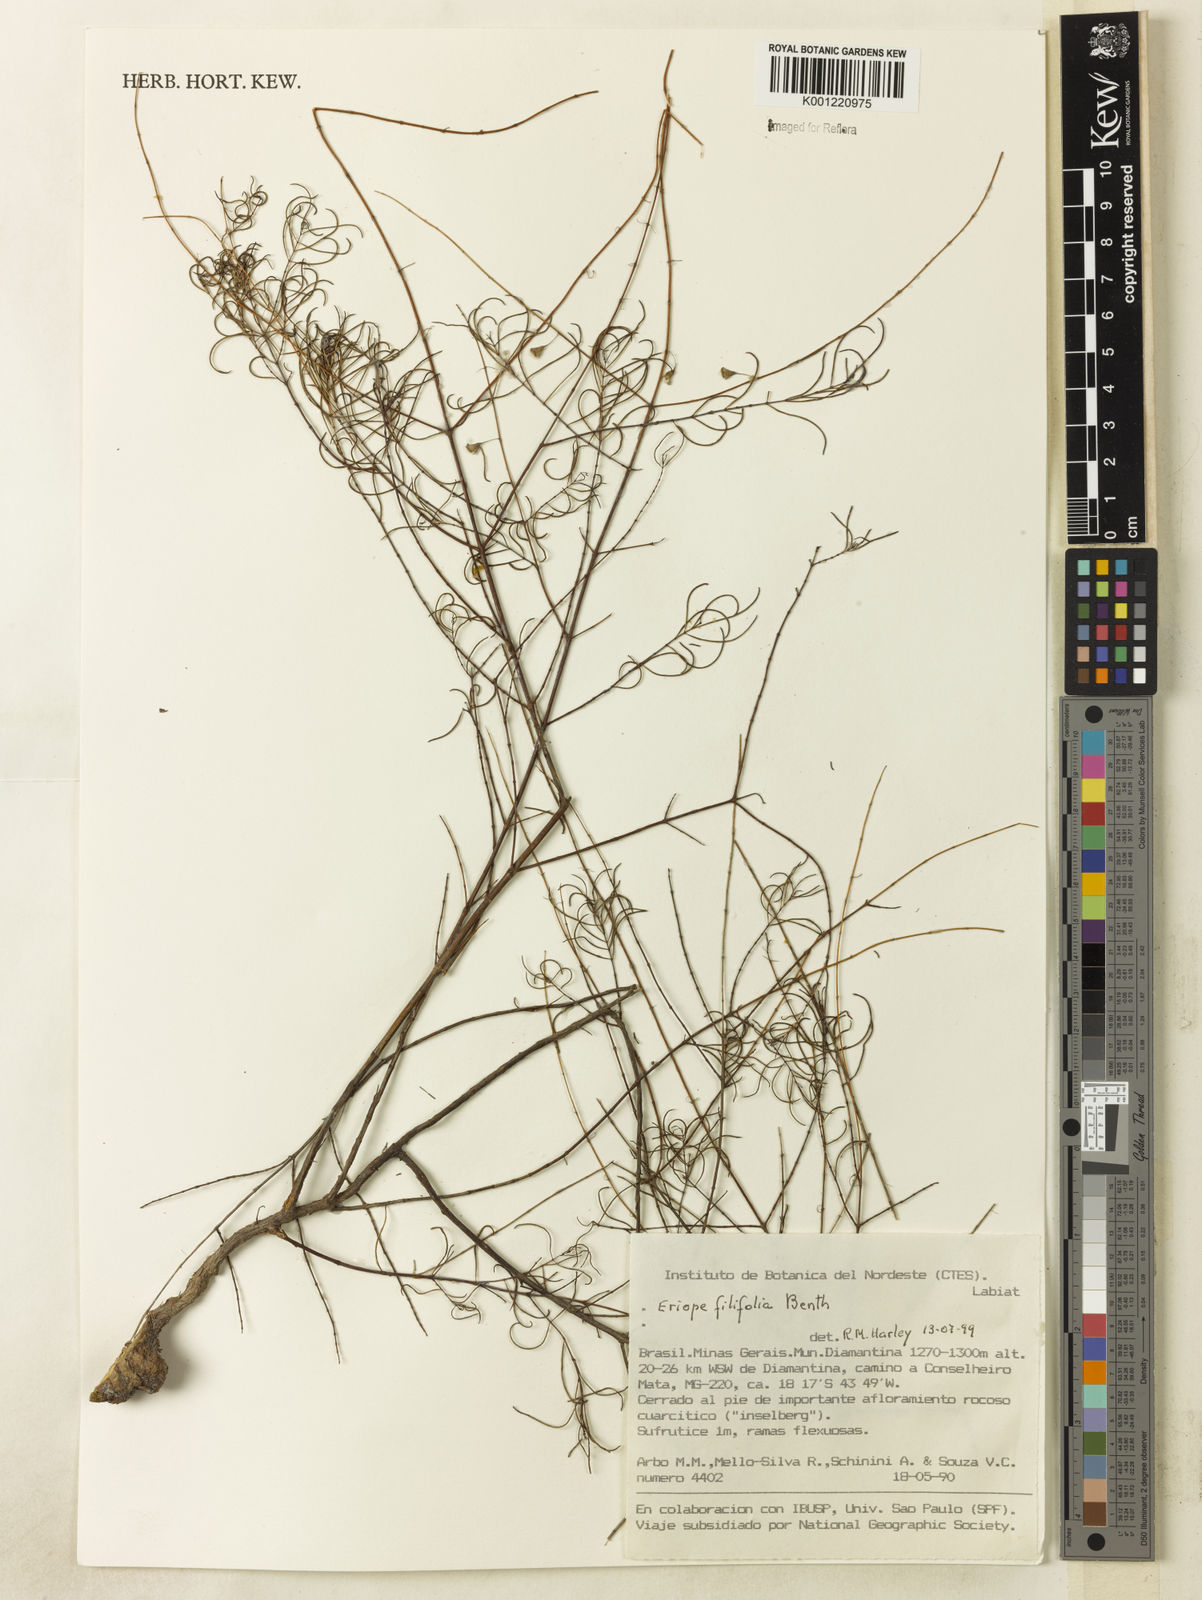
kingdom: Plantae
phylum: Tracheophyta
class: Magnoliopsida
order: Lamiales
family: Lamiaceae
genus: Eriope
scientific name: Eriope filifolia
